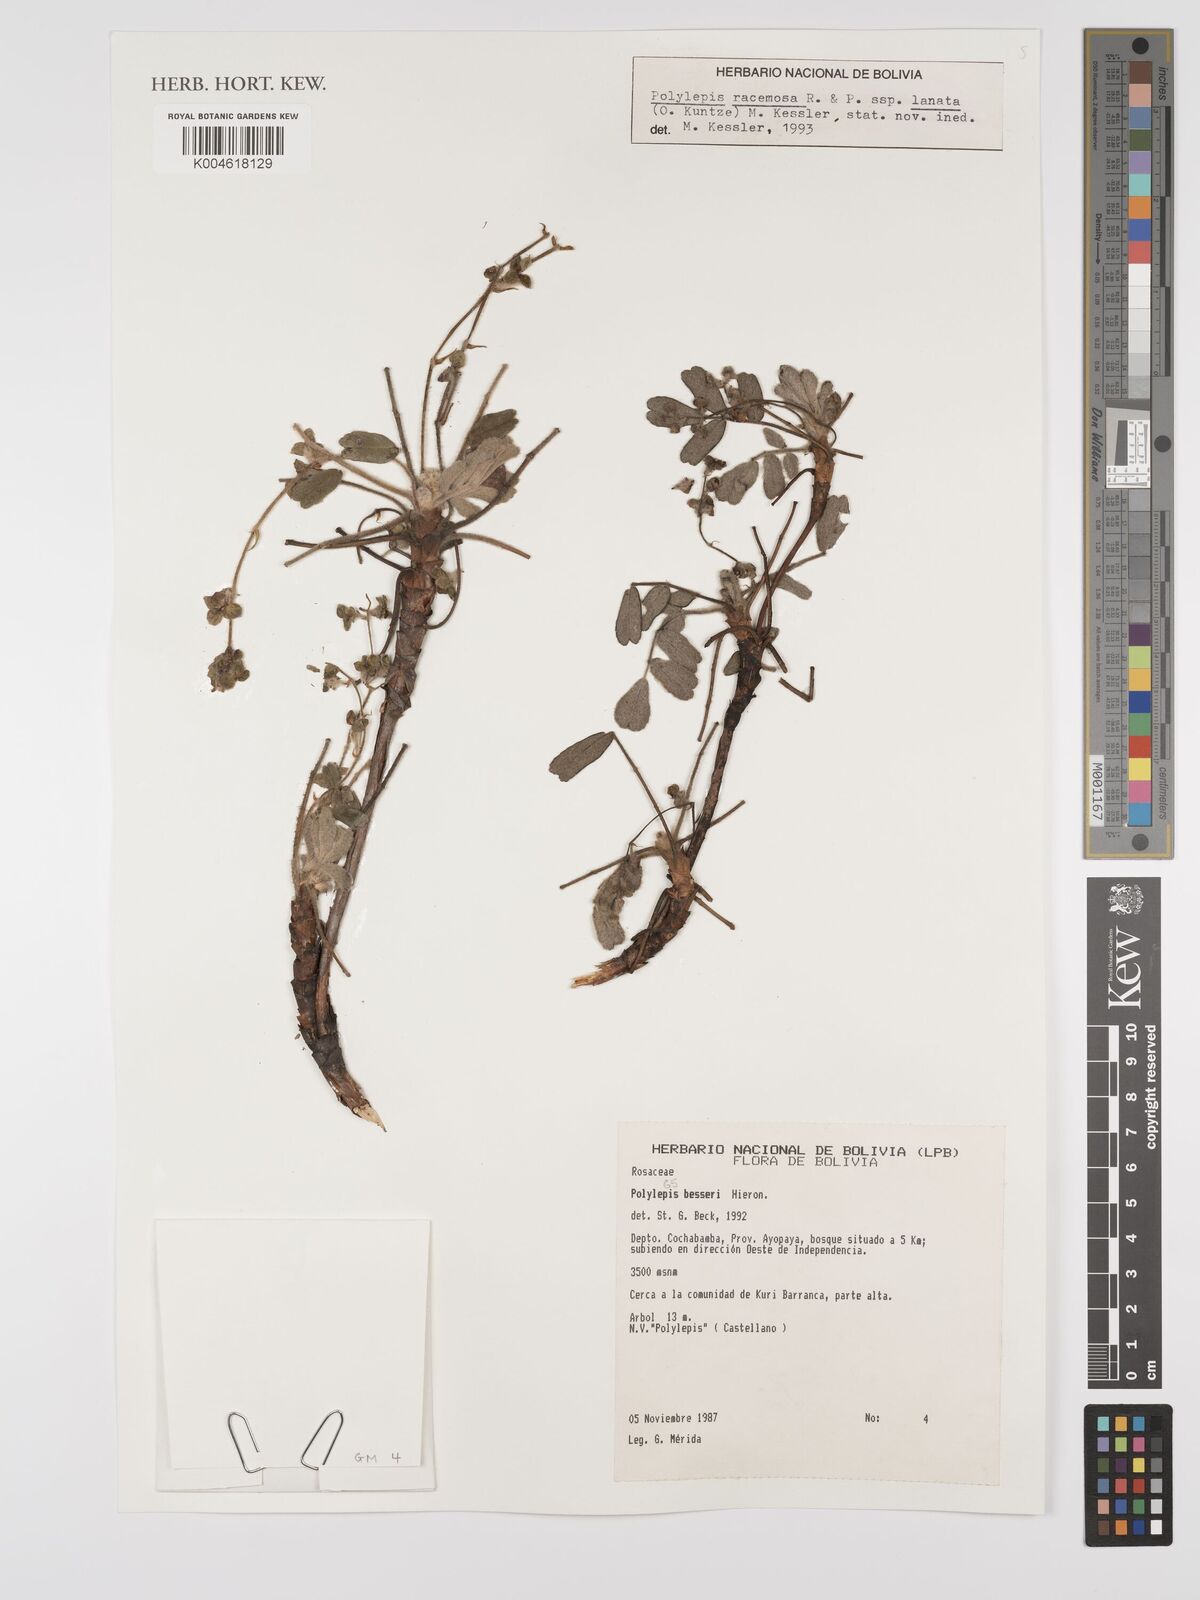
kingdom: Plantae
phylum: Tracheophyta
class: Magnoliopsida
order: Rosales
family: Rosaceae
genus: Polylepis
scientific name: Polylepis
